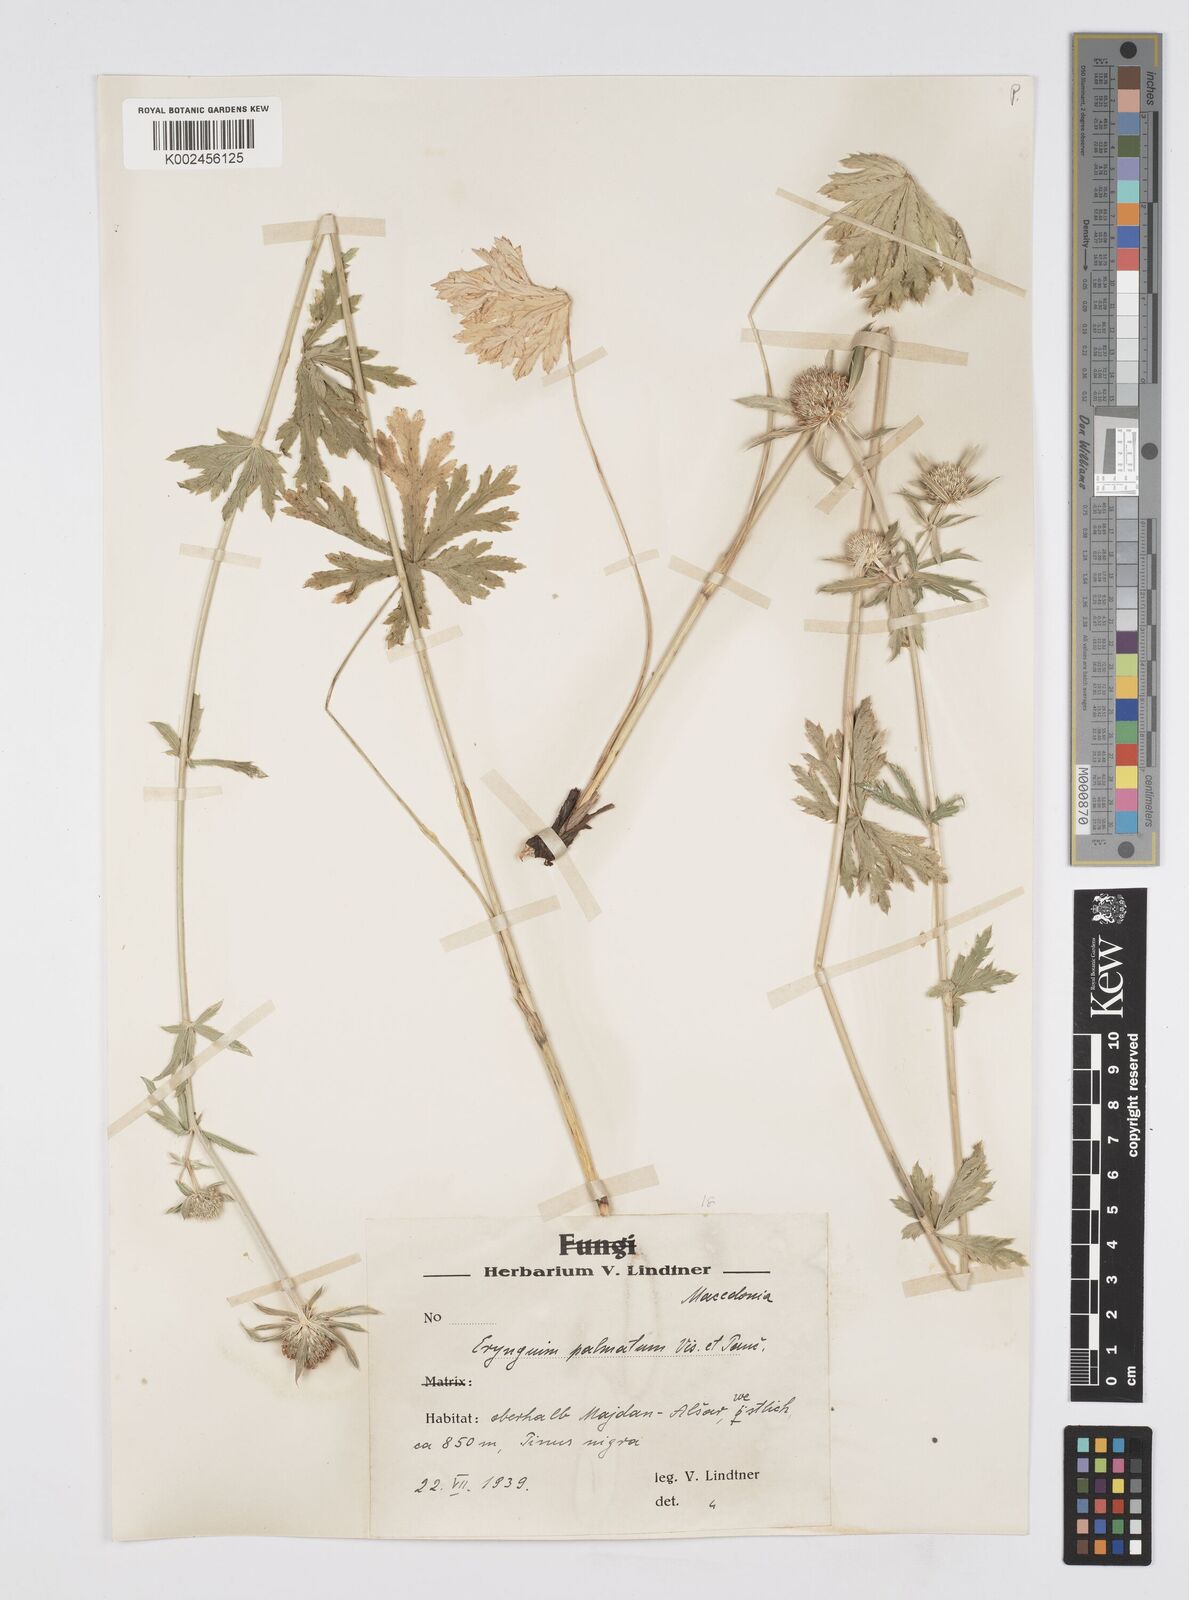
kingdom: Plantae
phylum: Tracheophyta
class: Magnoliopsida
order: Apiales
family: Apiaceae
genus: Eryngium
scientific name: Eryngium palmatum
